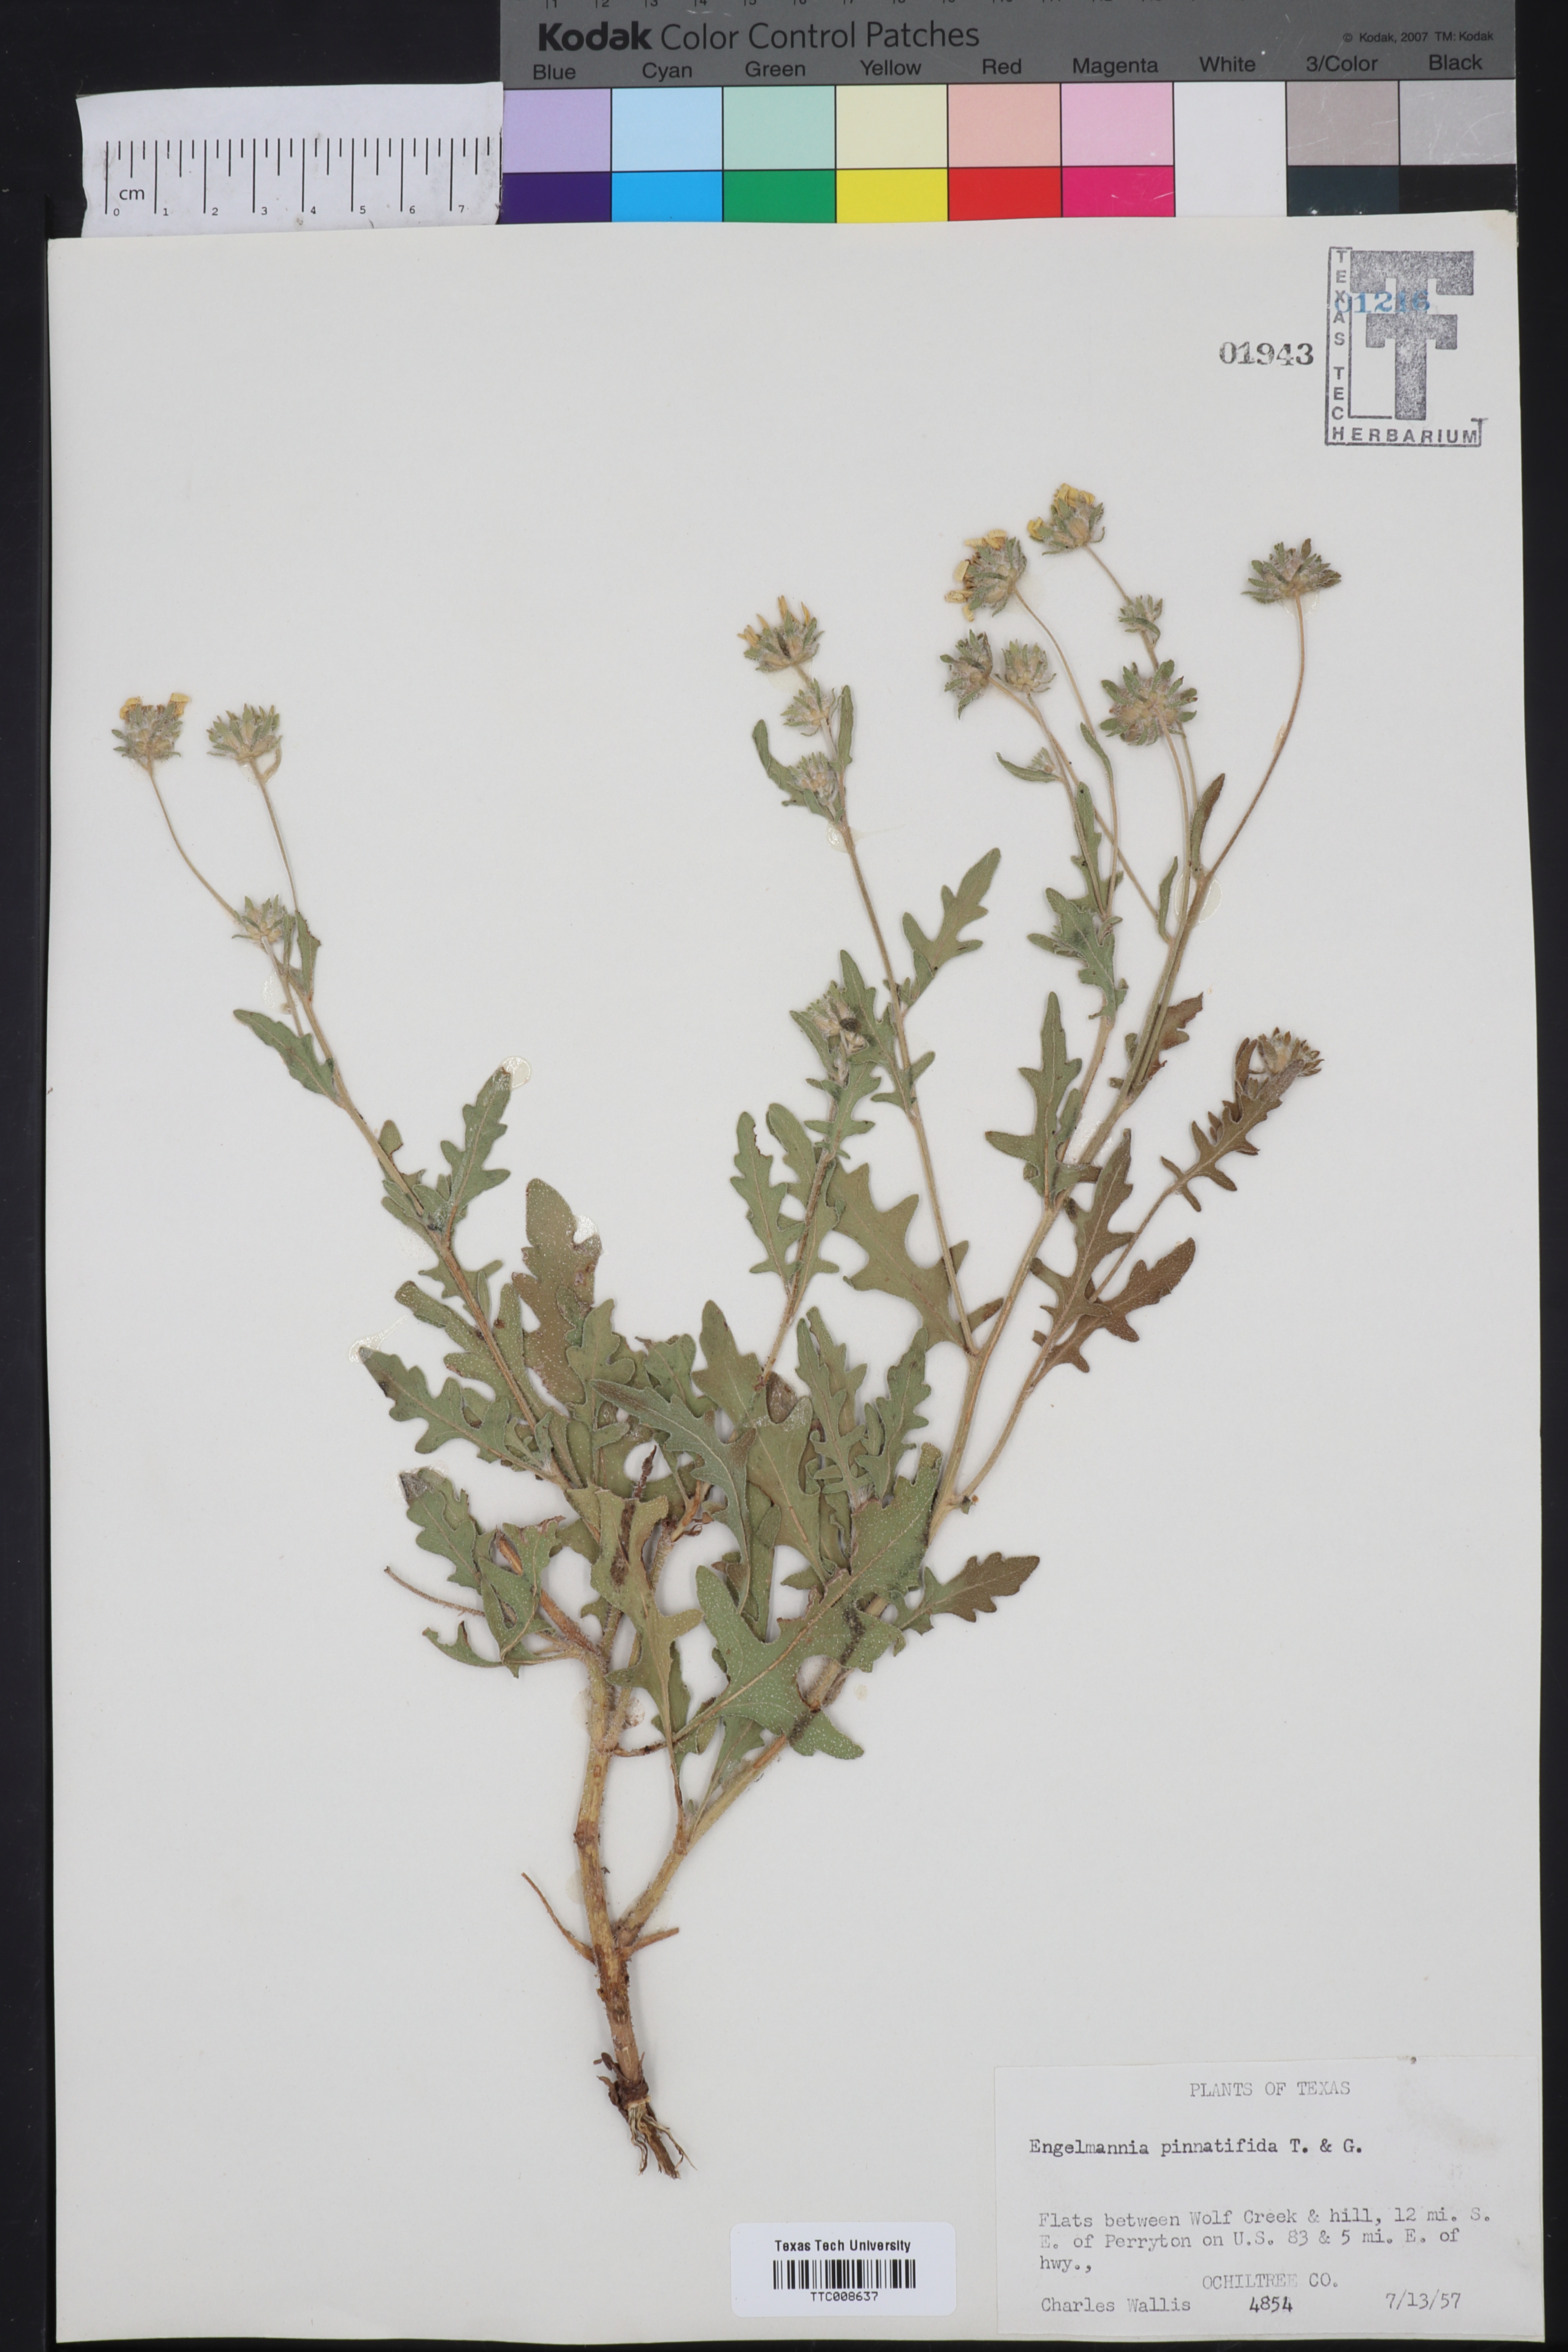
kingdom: Plantae
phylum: Tracheophyta
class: Magnoliopsida
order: Asterales
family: Asteraceae
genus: Engelmannia
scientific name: Engelmannia peristenia
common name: Engelmann's daisy
